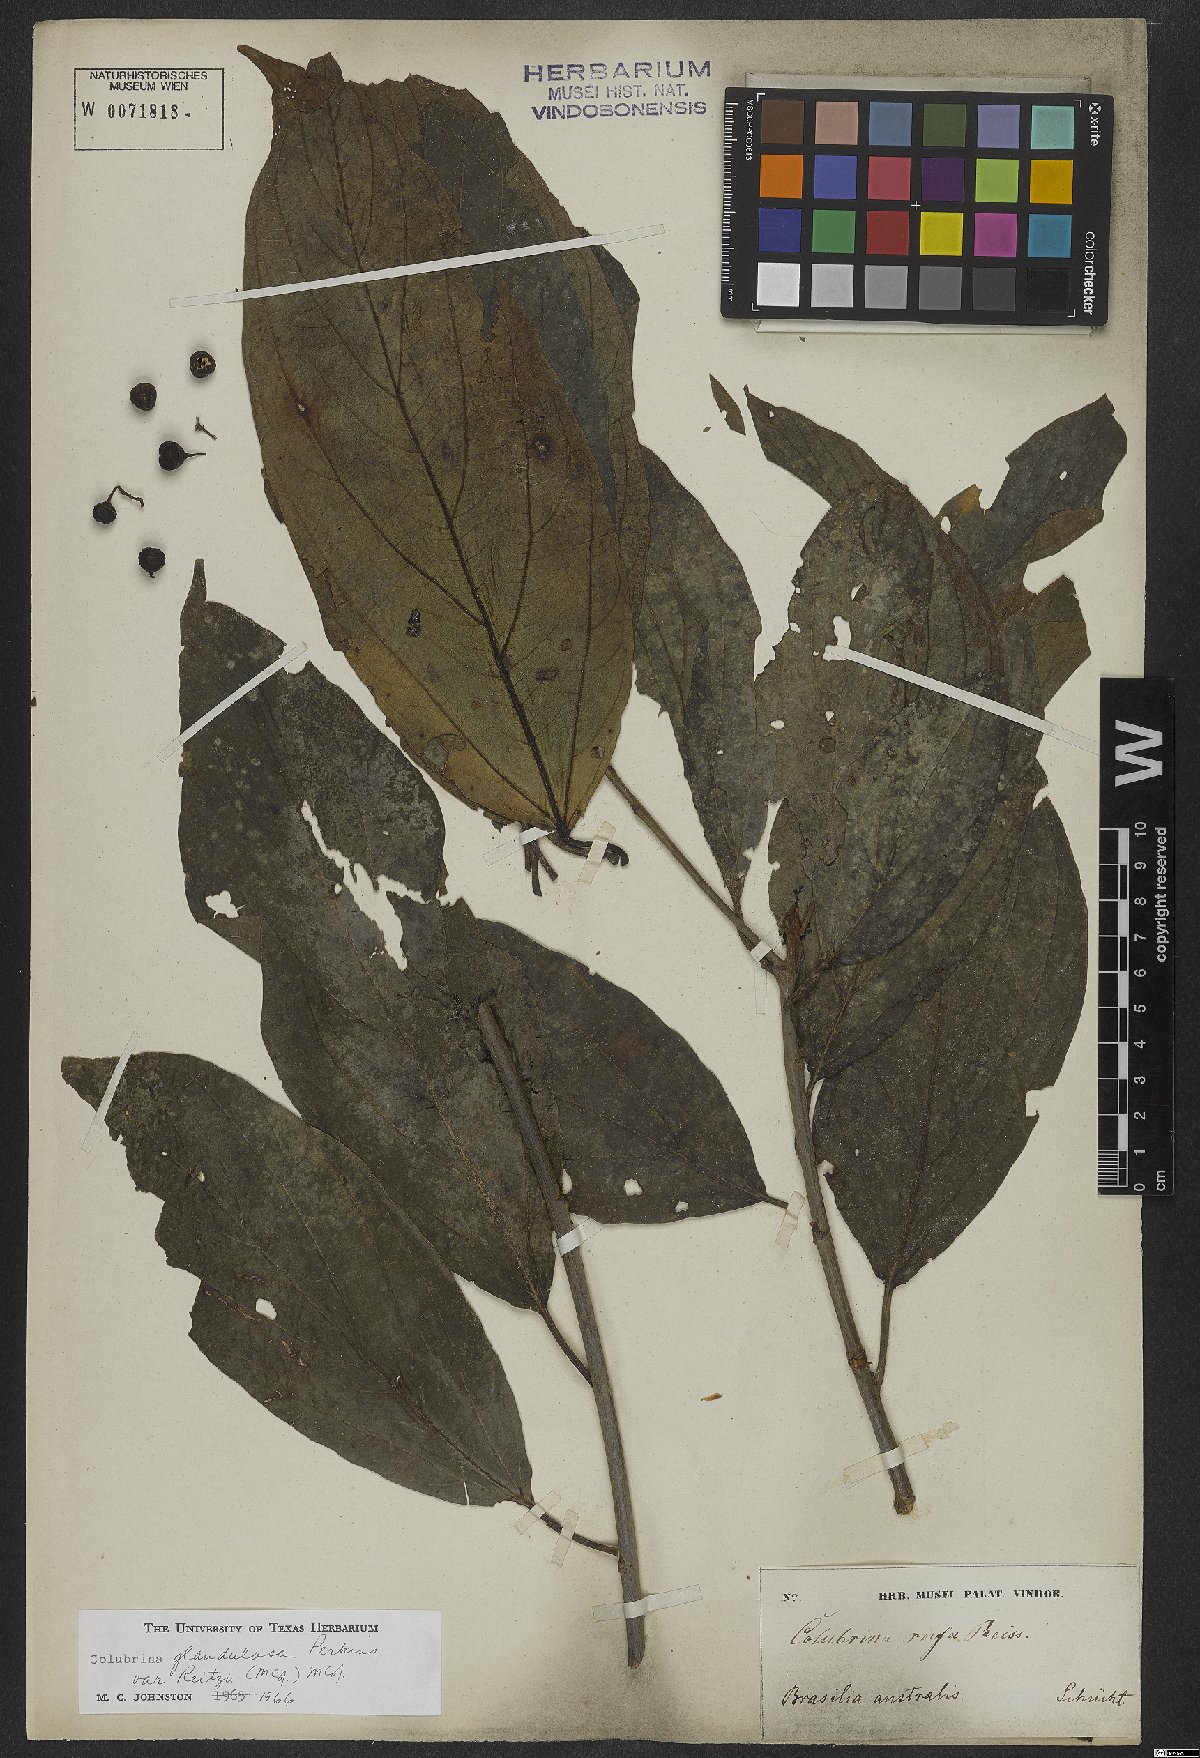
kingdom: Plantae
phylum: Tracheophyta
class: Magnoliopsida
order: Rosales
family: Rhamnaceae
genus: Colubrina
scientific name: Colubrina glandulosa
